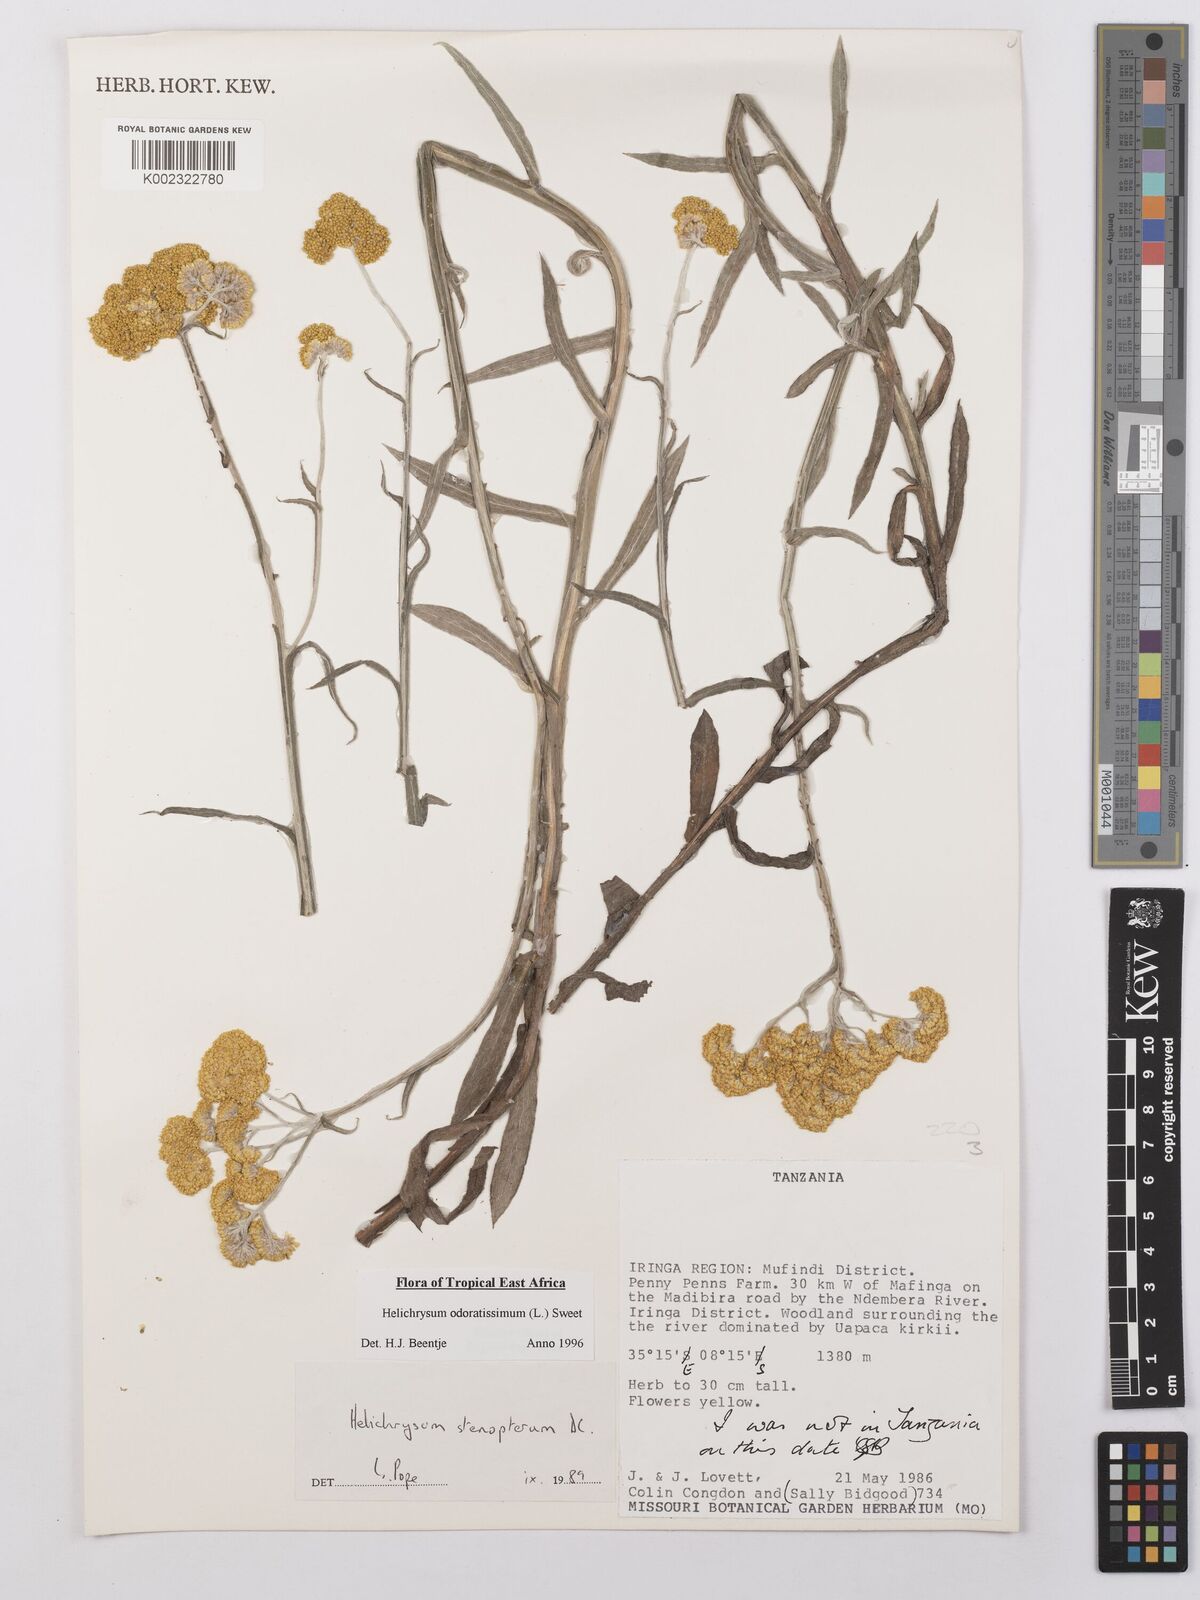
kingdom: Plantae
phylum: Tracheophyta
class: Magnoliopsida
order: Asterales
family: Asteraceae
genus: Helichrysum
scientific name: Helichrysum odoratissimum
